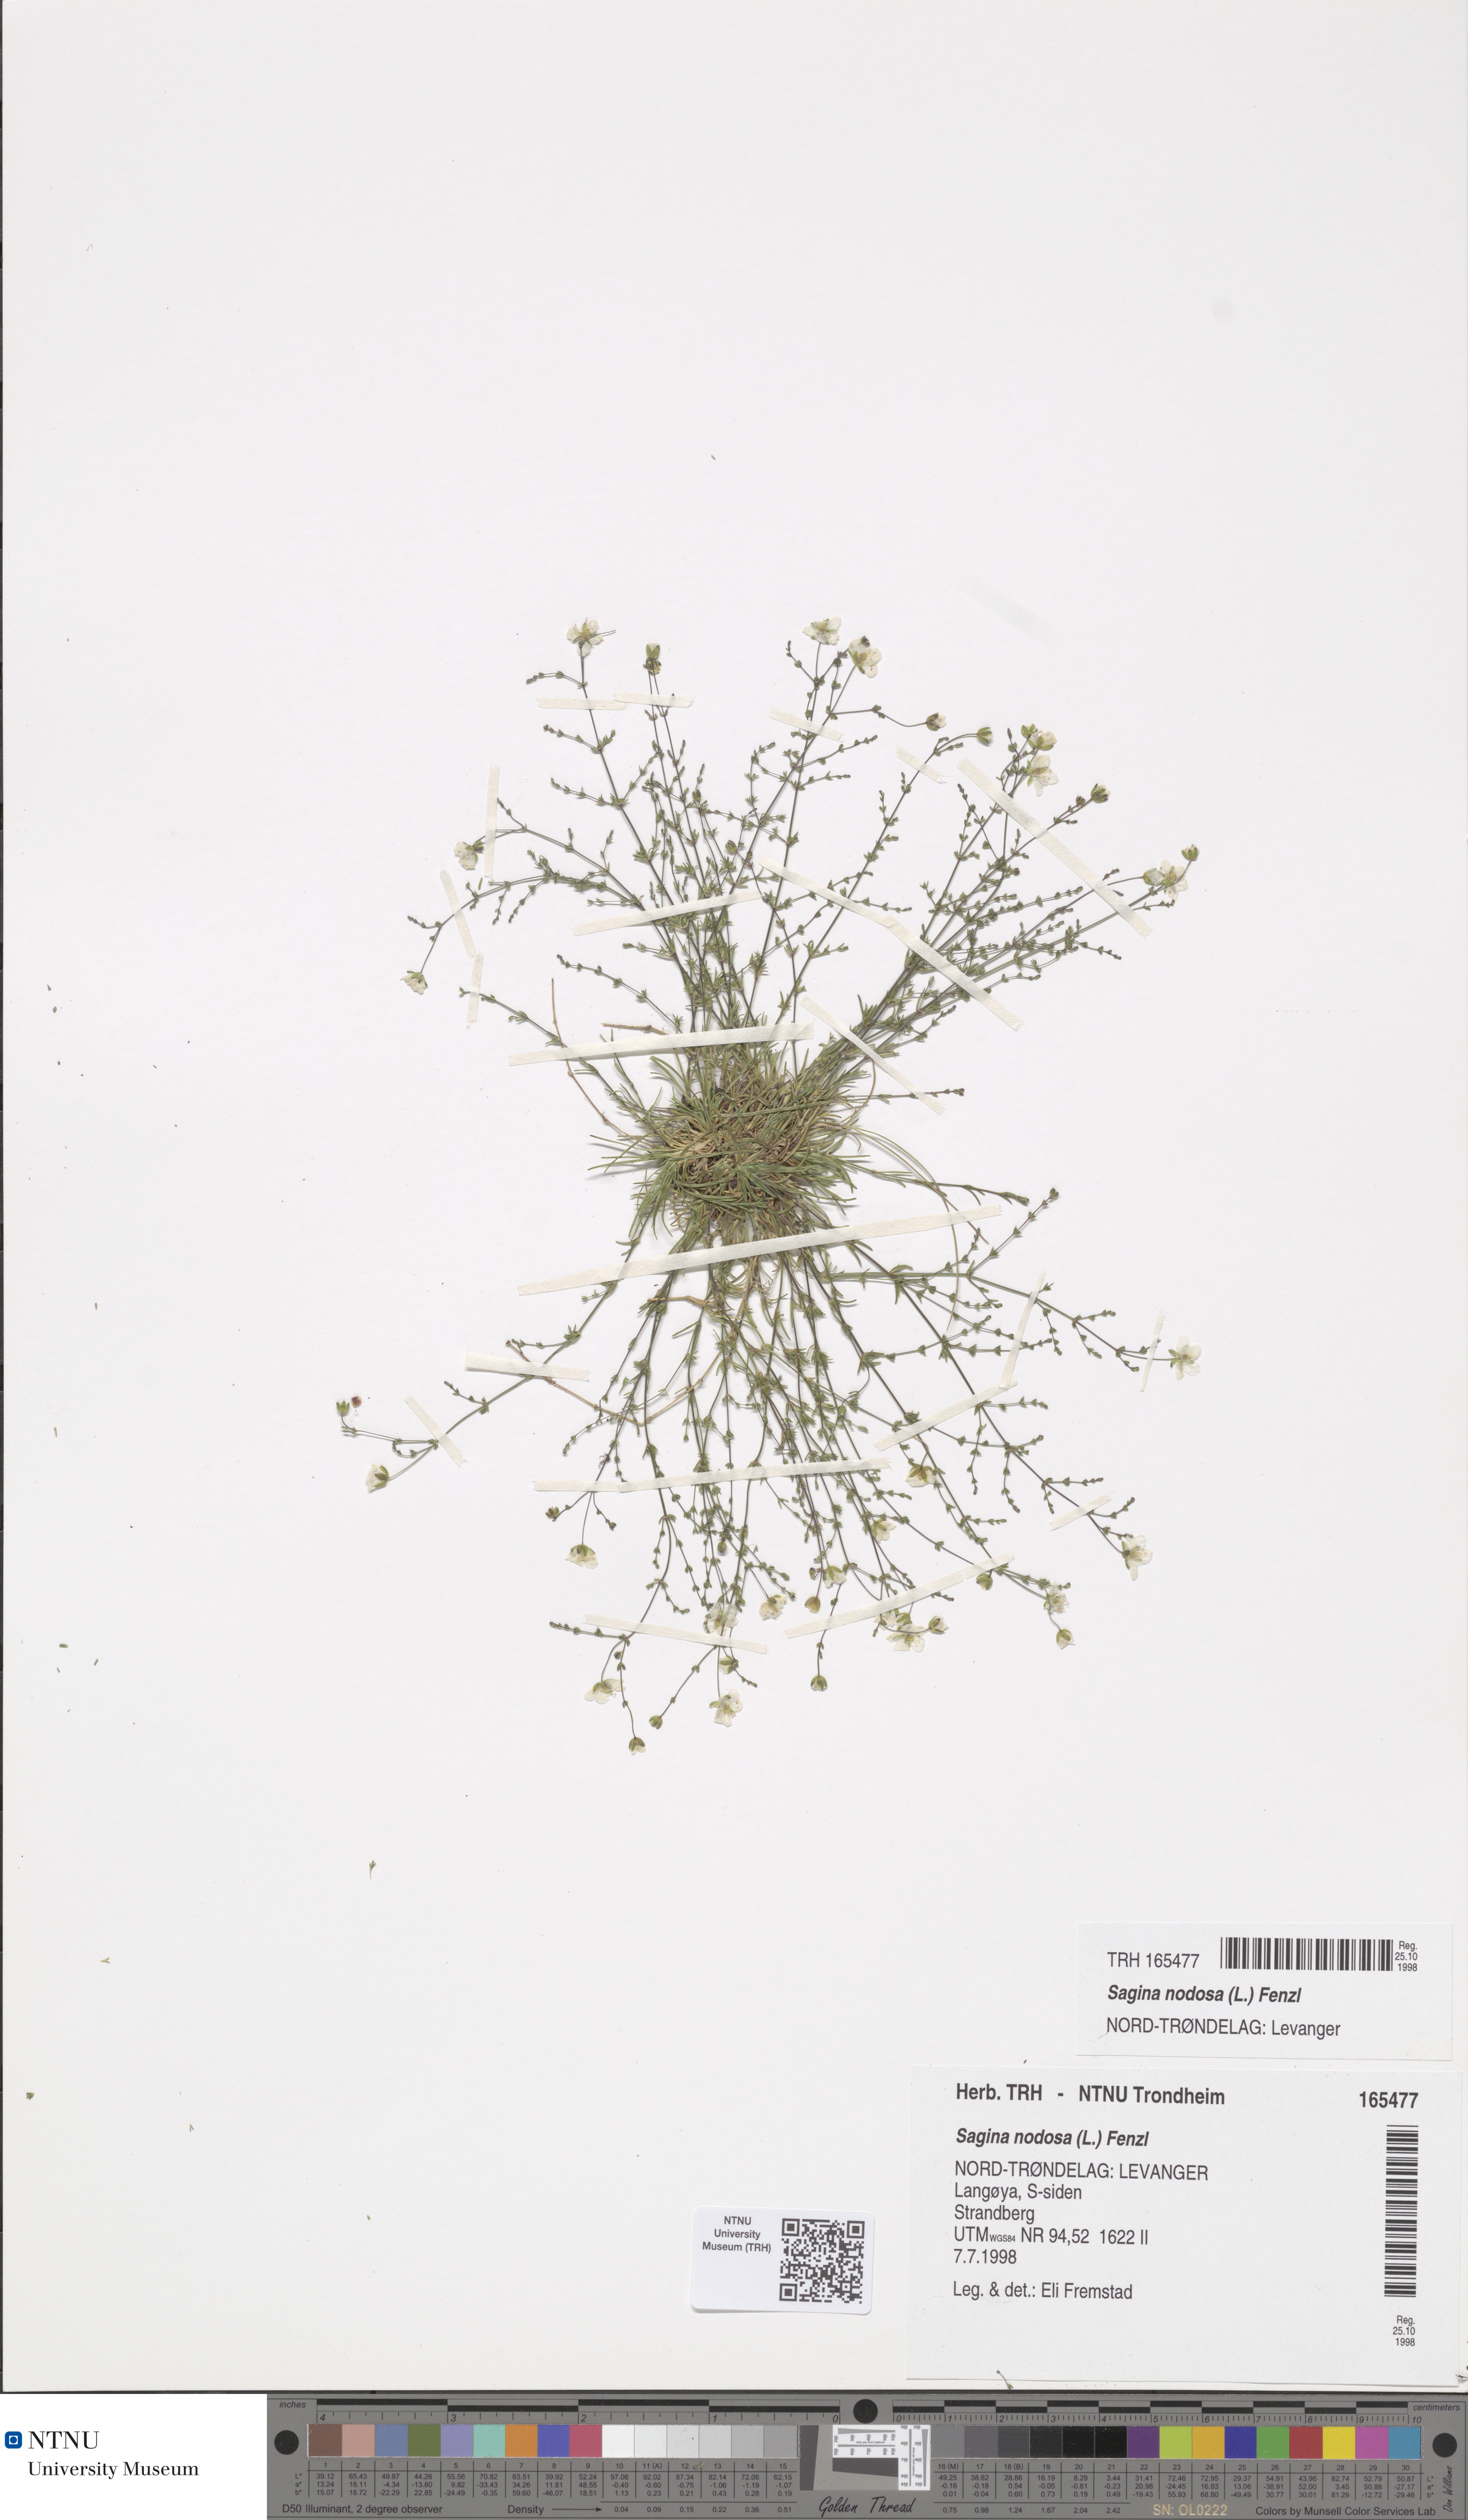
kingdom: Plantae
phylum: Tracheophyta
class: Magnoliopsida
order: Caryophyllales
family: Caryophyllaceae
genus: Sagina
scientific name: Sagina nodosa
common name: Knotted pearlwort
